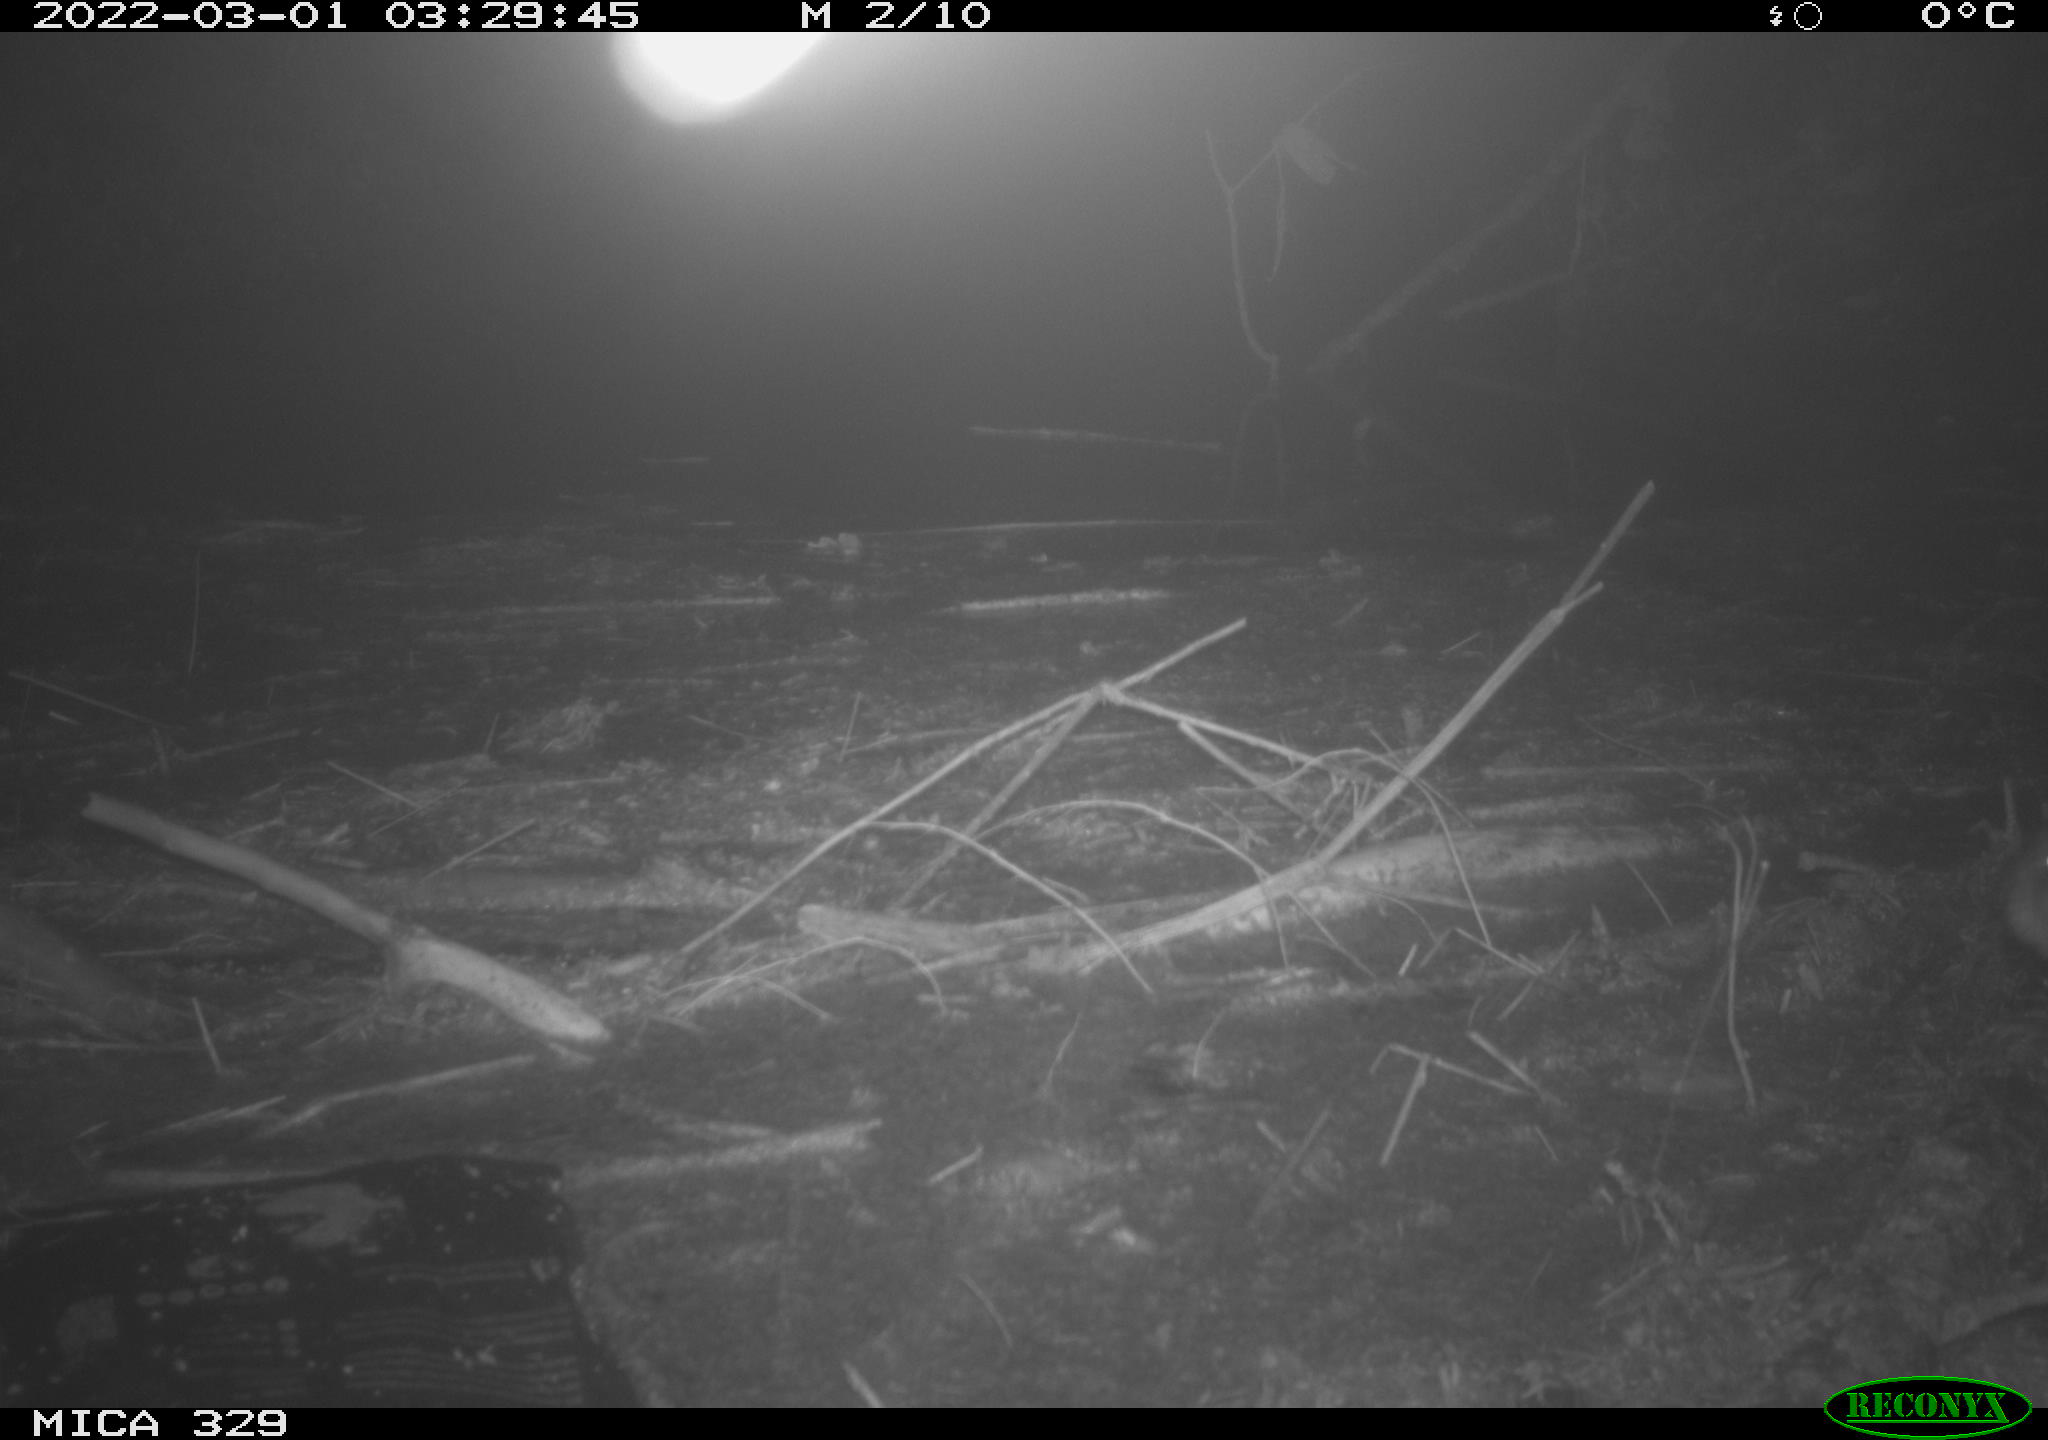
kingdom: Animalia
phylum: Chordata
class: Mammalia
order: Rodentia
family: Cricetidae
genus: Ondatra
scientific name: Ondatra zibethicus
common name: Muskrat
